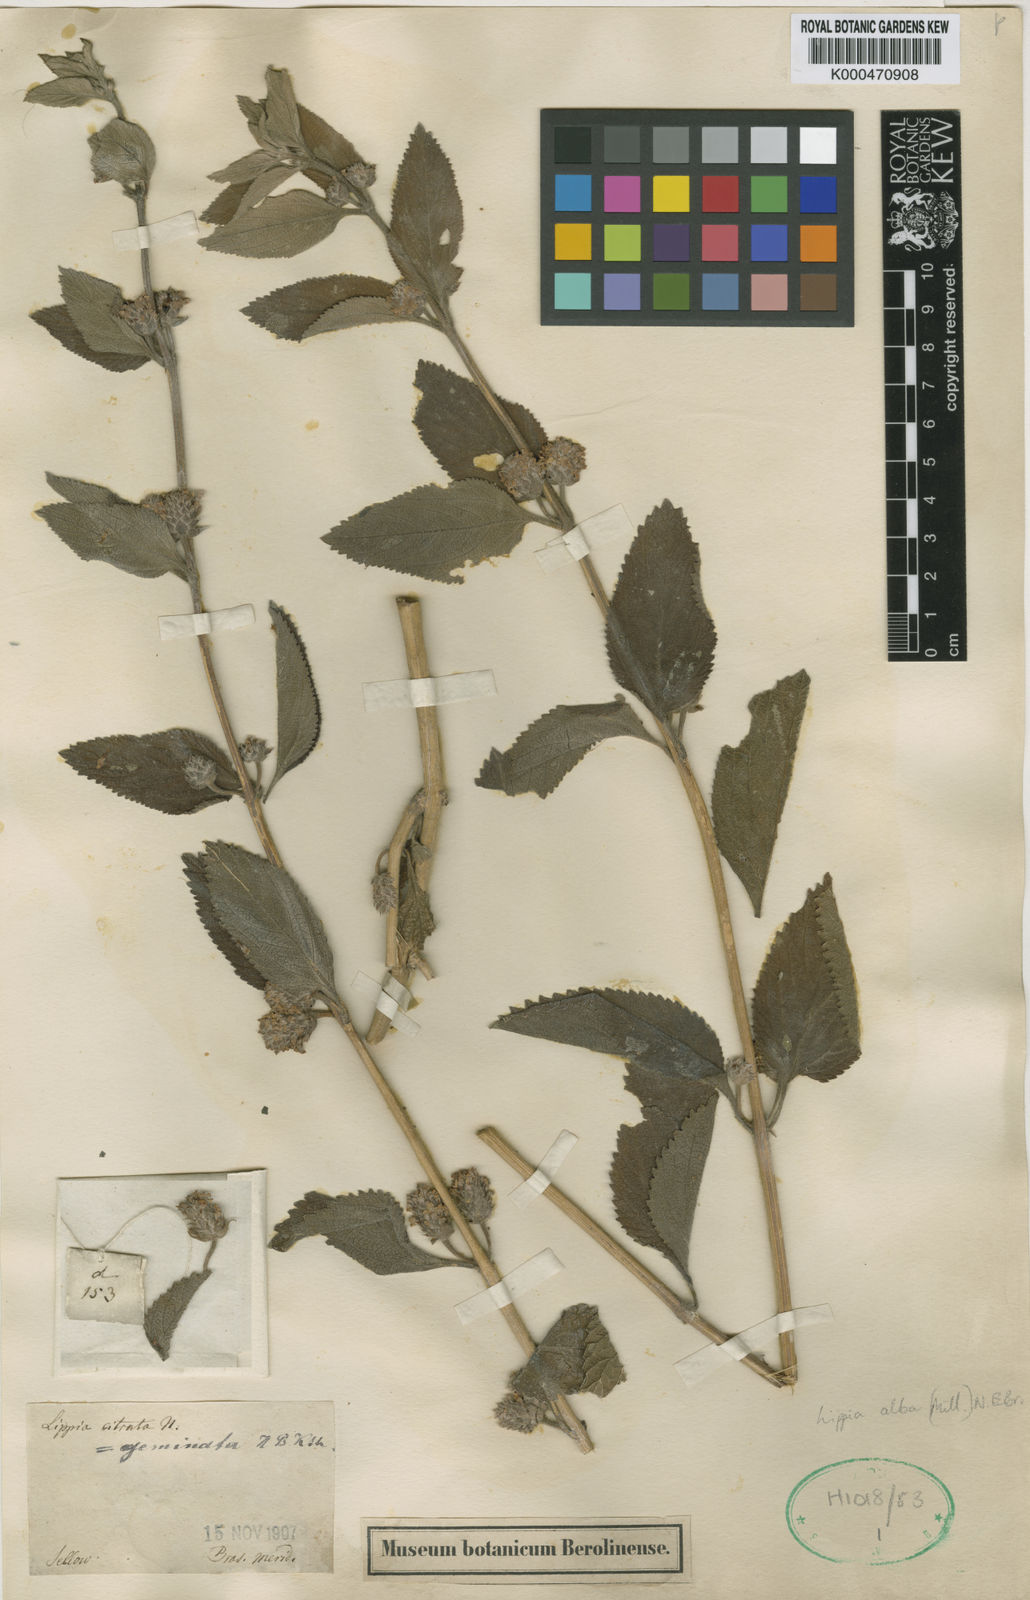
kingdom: Plantae
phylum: Tracheophyta
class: Magnoliopsida
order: Lamiales
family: Verbenaceae
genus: Lippia
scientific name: Lippia alba
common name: Bushy matgrass
